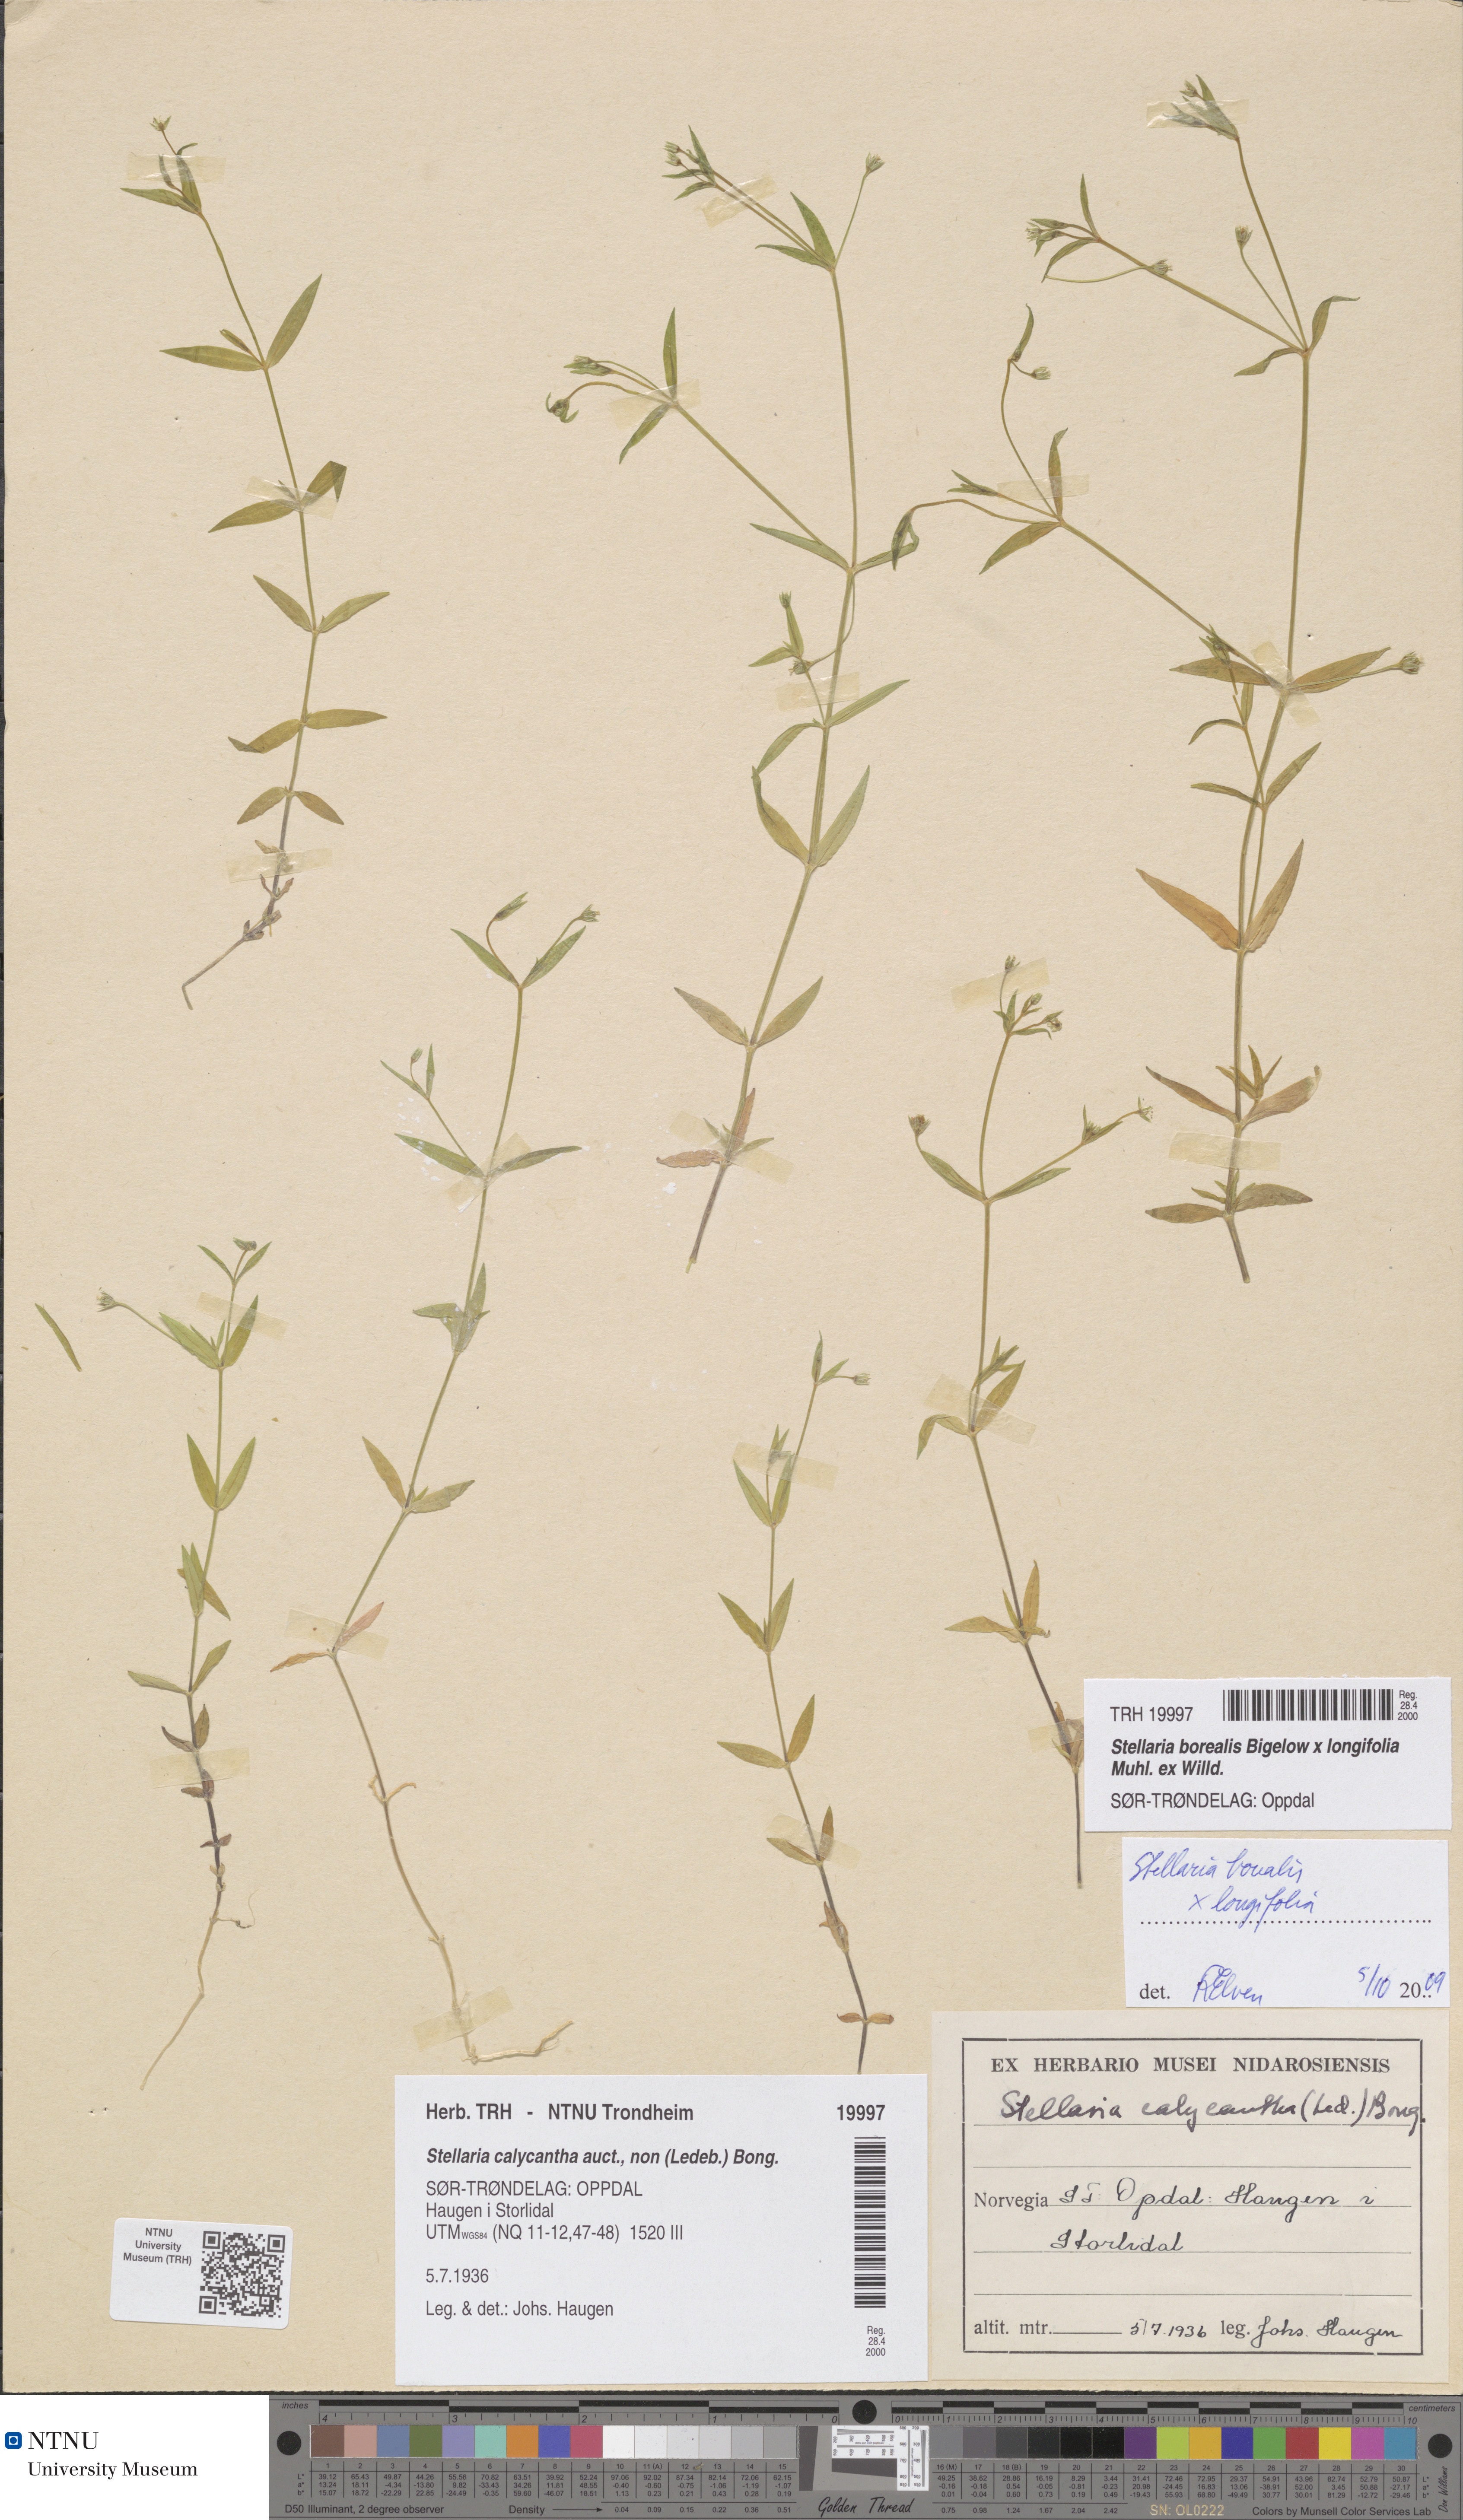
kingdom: Plantae
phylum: Tracheophyta
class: Magnoliopsida
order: Caryophyllales
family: Caryophyllaceae
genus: Stellaria
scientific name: Stellaria alpestris
